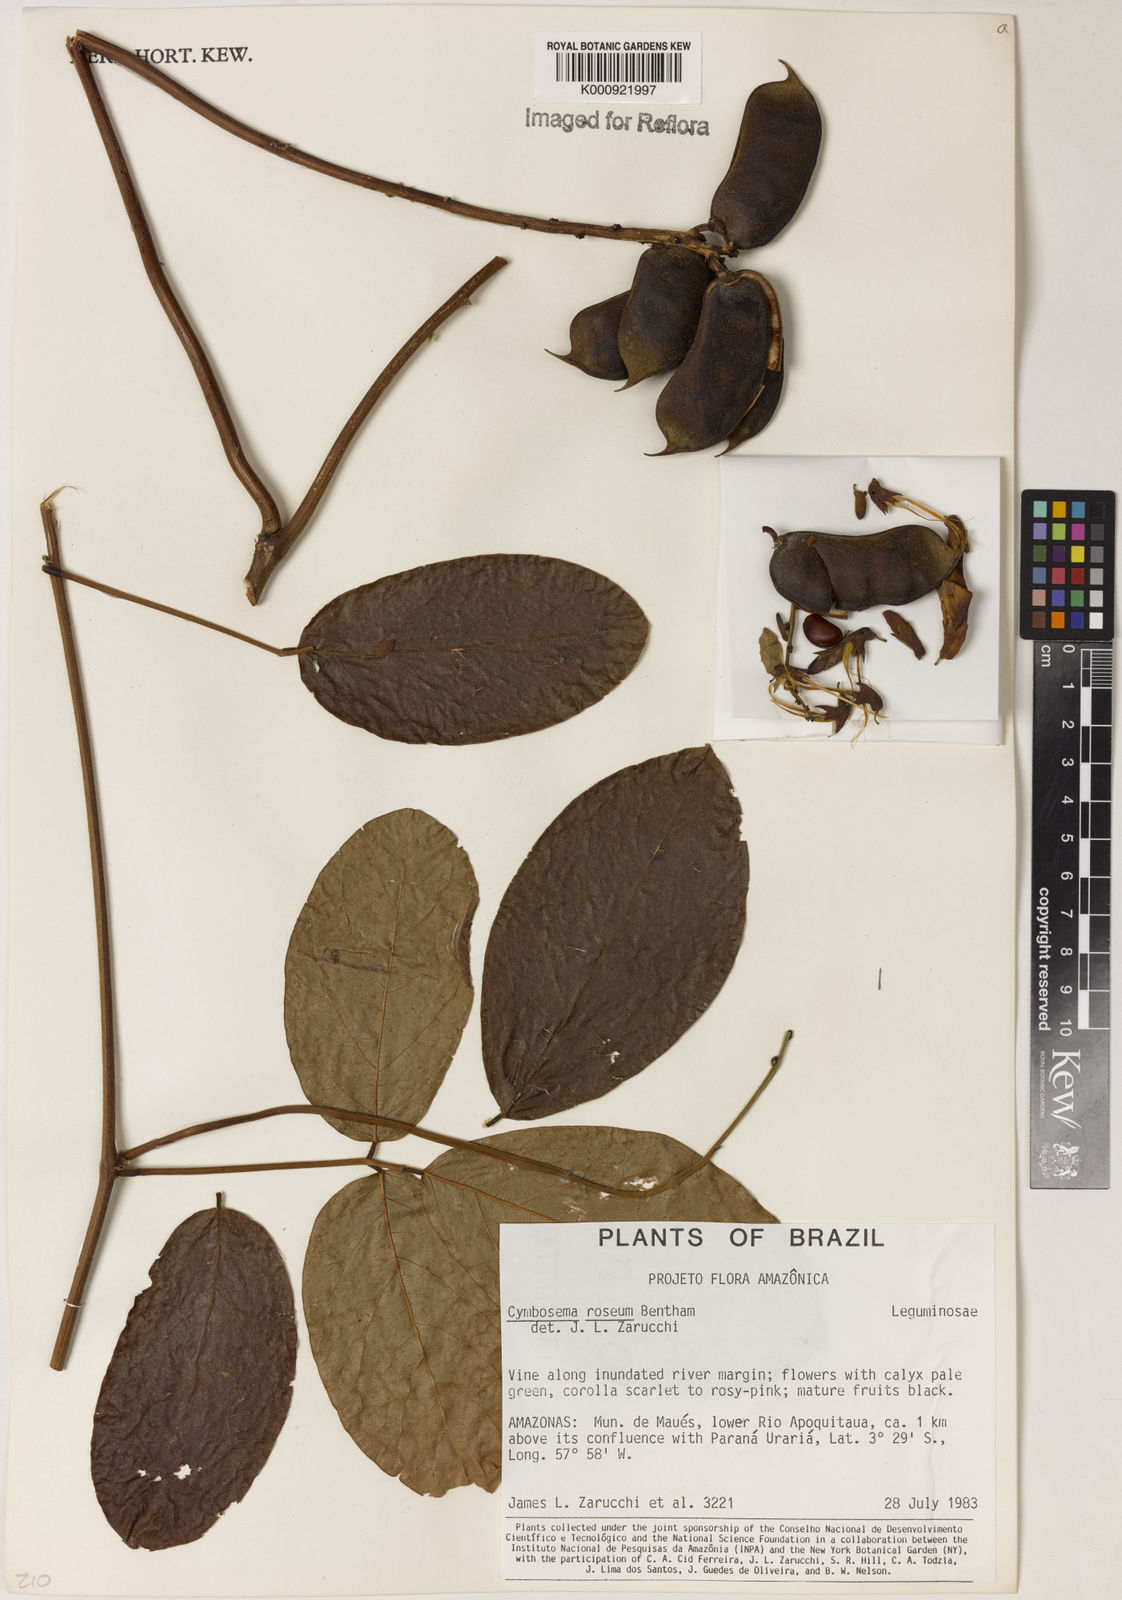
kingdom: Plantae
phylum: Tracheophyta
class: Magnoliopsida
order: Fabales
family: Fabaceae
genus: Cymbosema
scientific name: Cymbosema roseum
